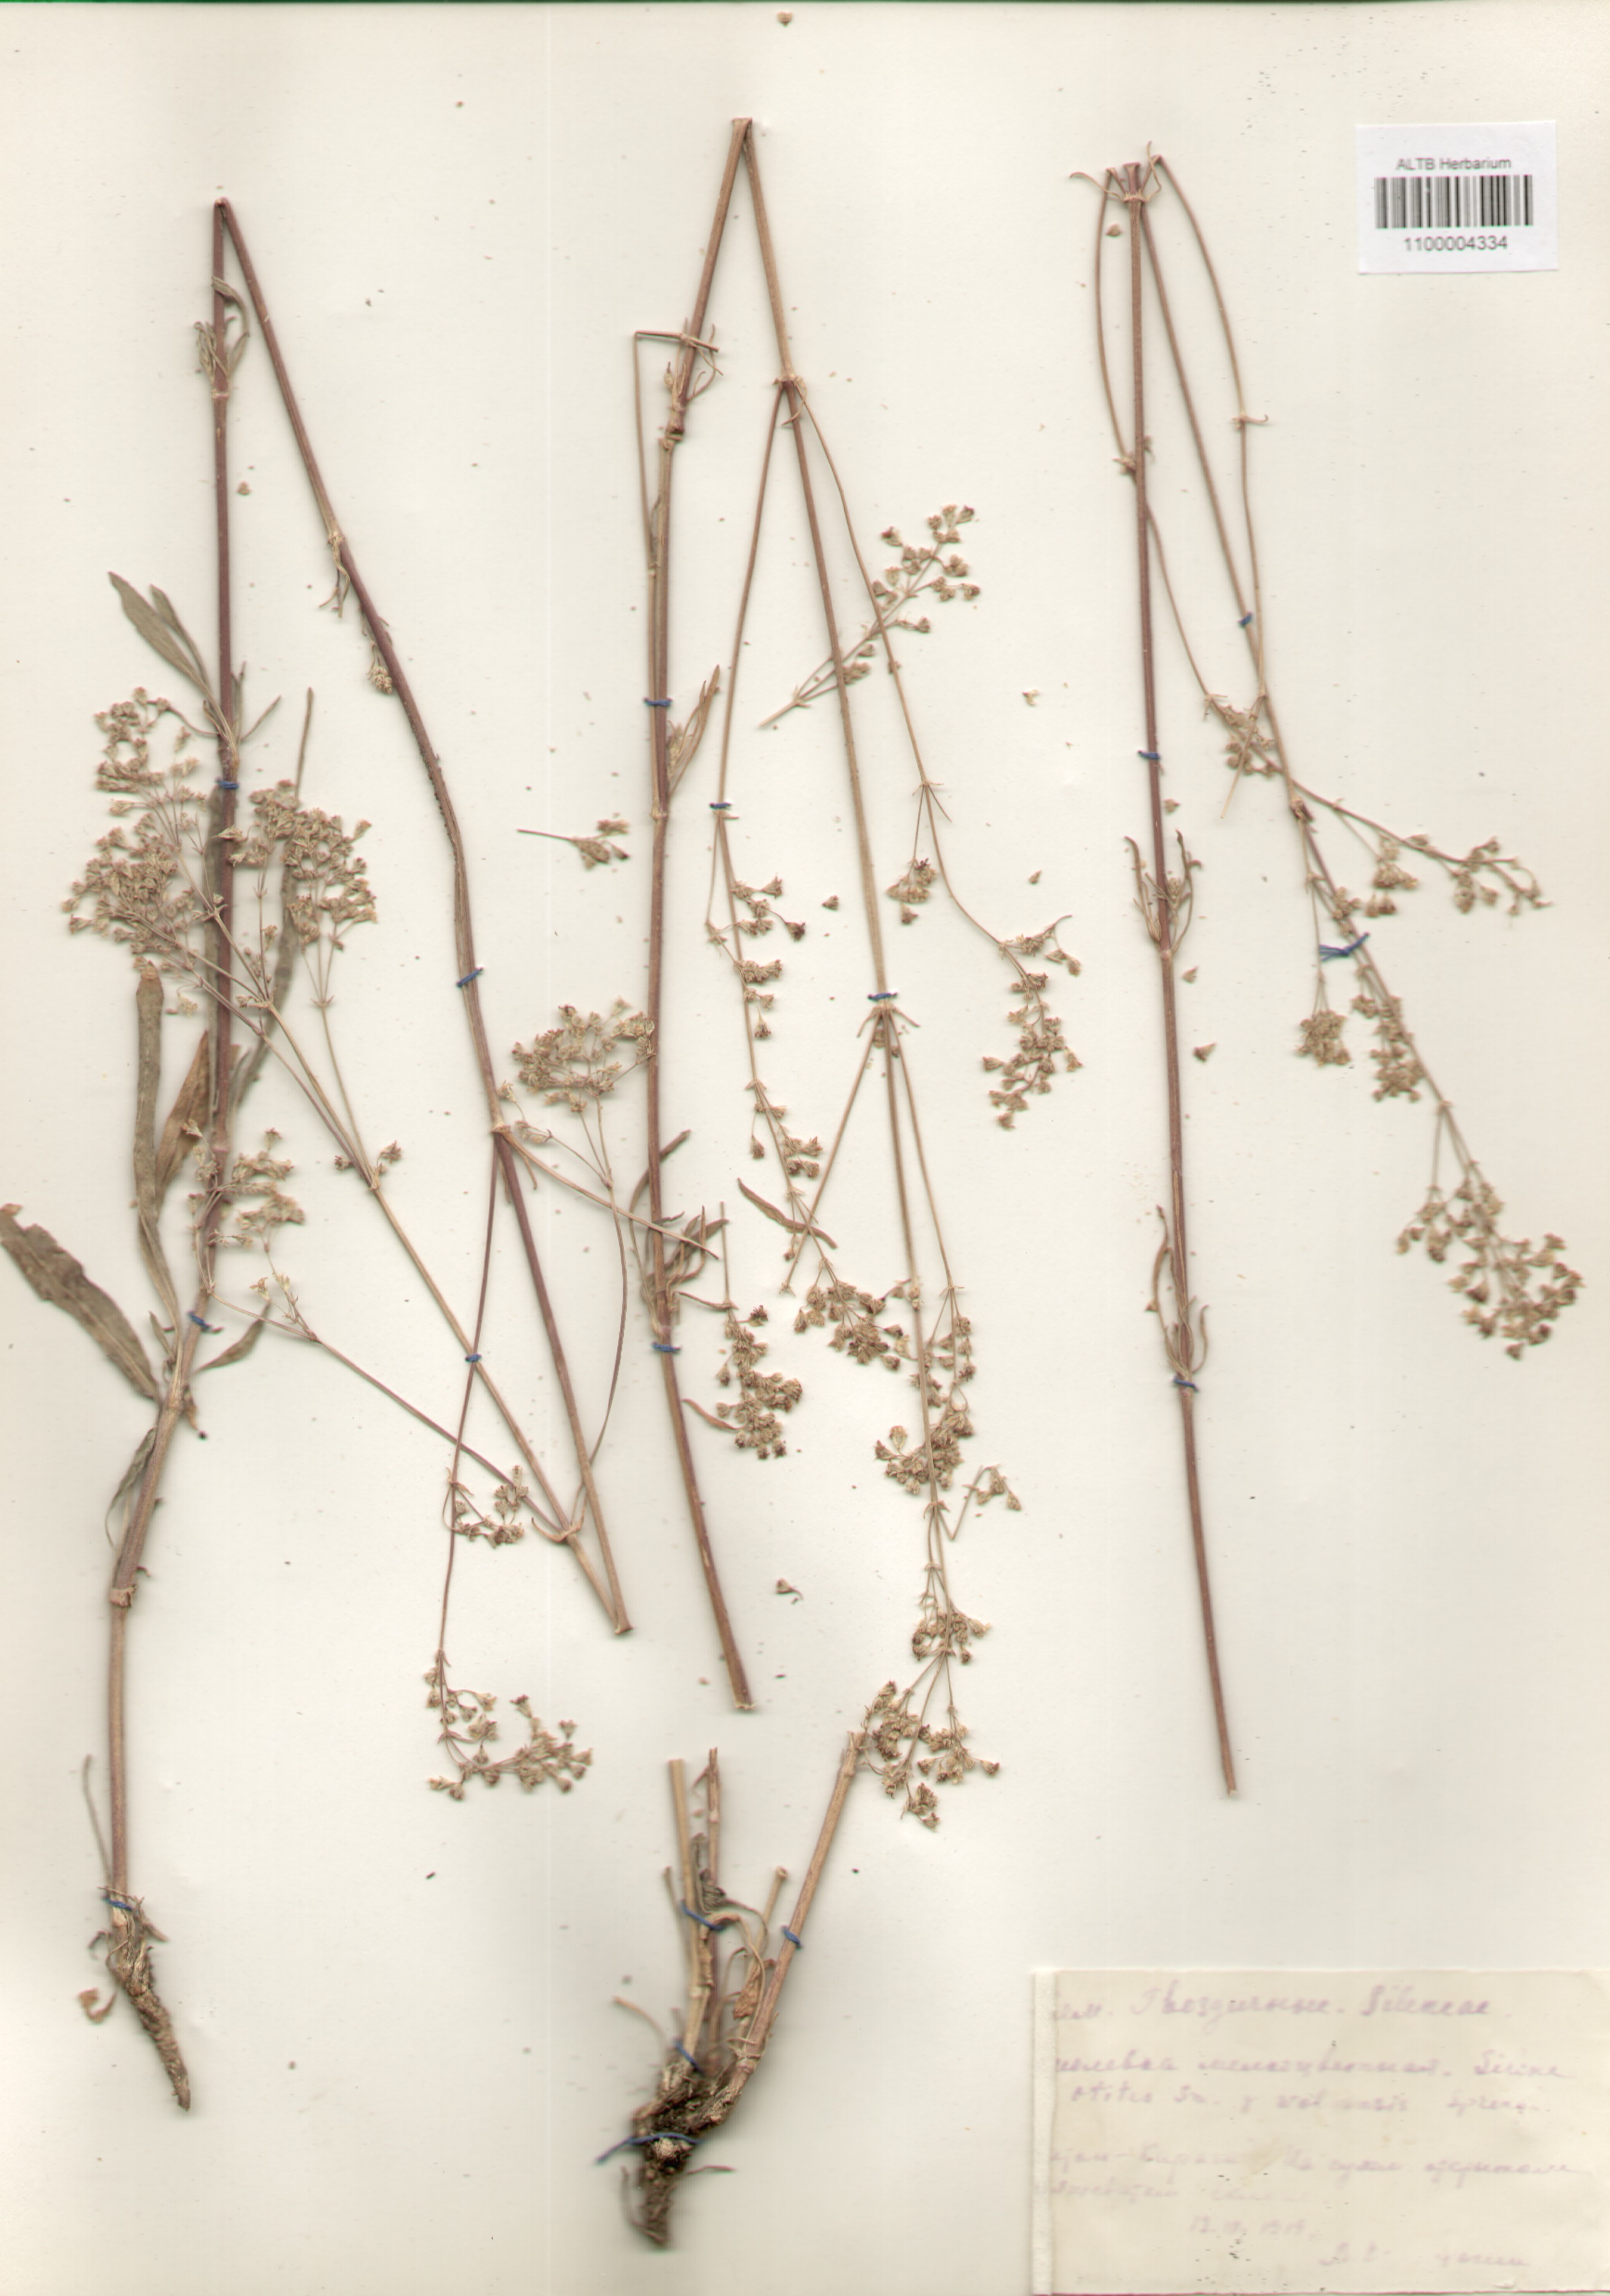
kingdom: Plantae
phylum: Tracheophyta
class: Magnoliopsida
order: Caryophyllales
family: Caryophyllaceae
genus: Silene
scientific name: Silene wolgensis
